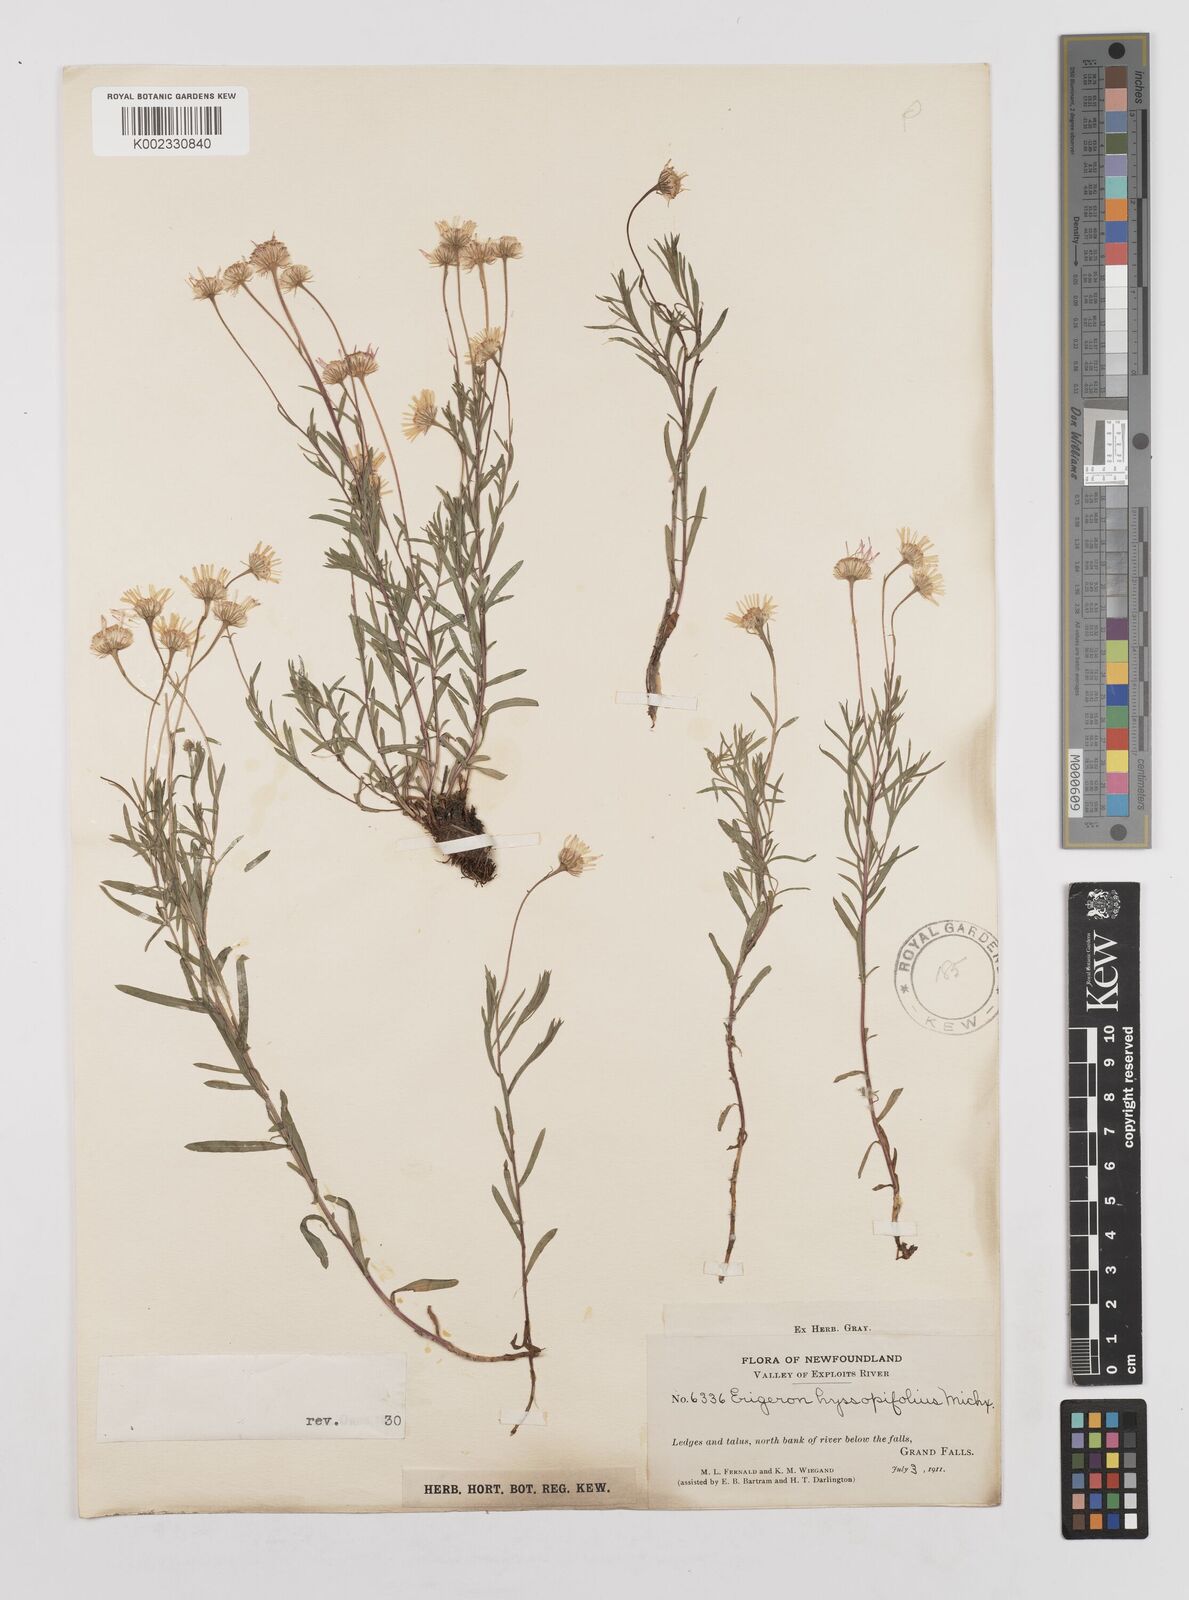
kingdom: Plantae
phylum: Tracheophyta
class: Magnoliopsida
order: Asterales
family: Asteraceae
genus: Erigeron
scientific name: Erigeron hyssopifolius
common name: Daisy fleabane
